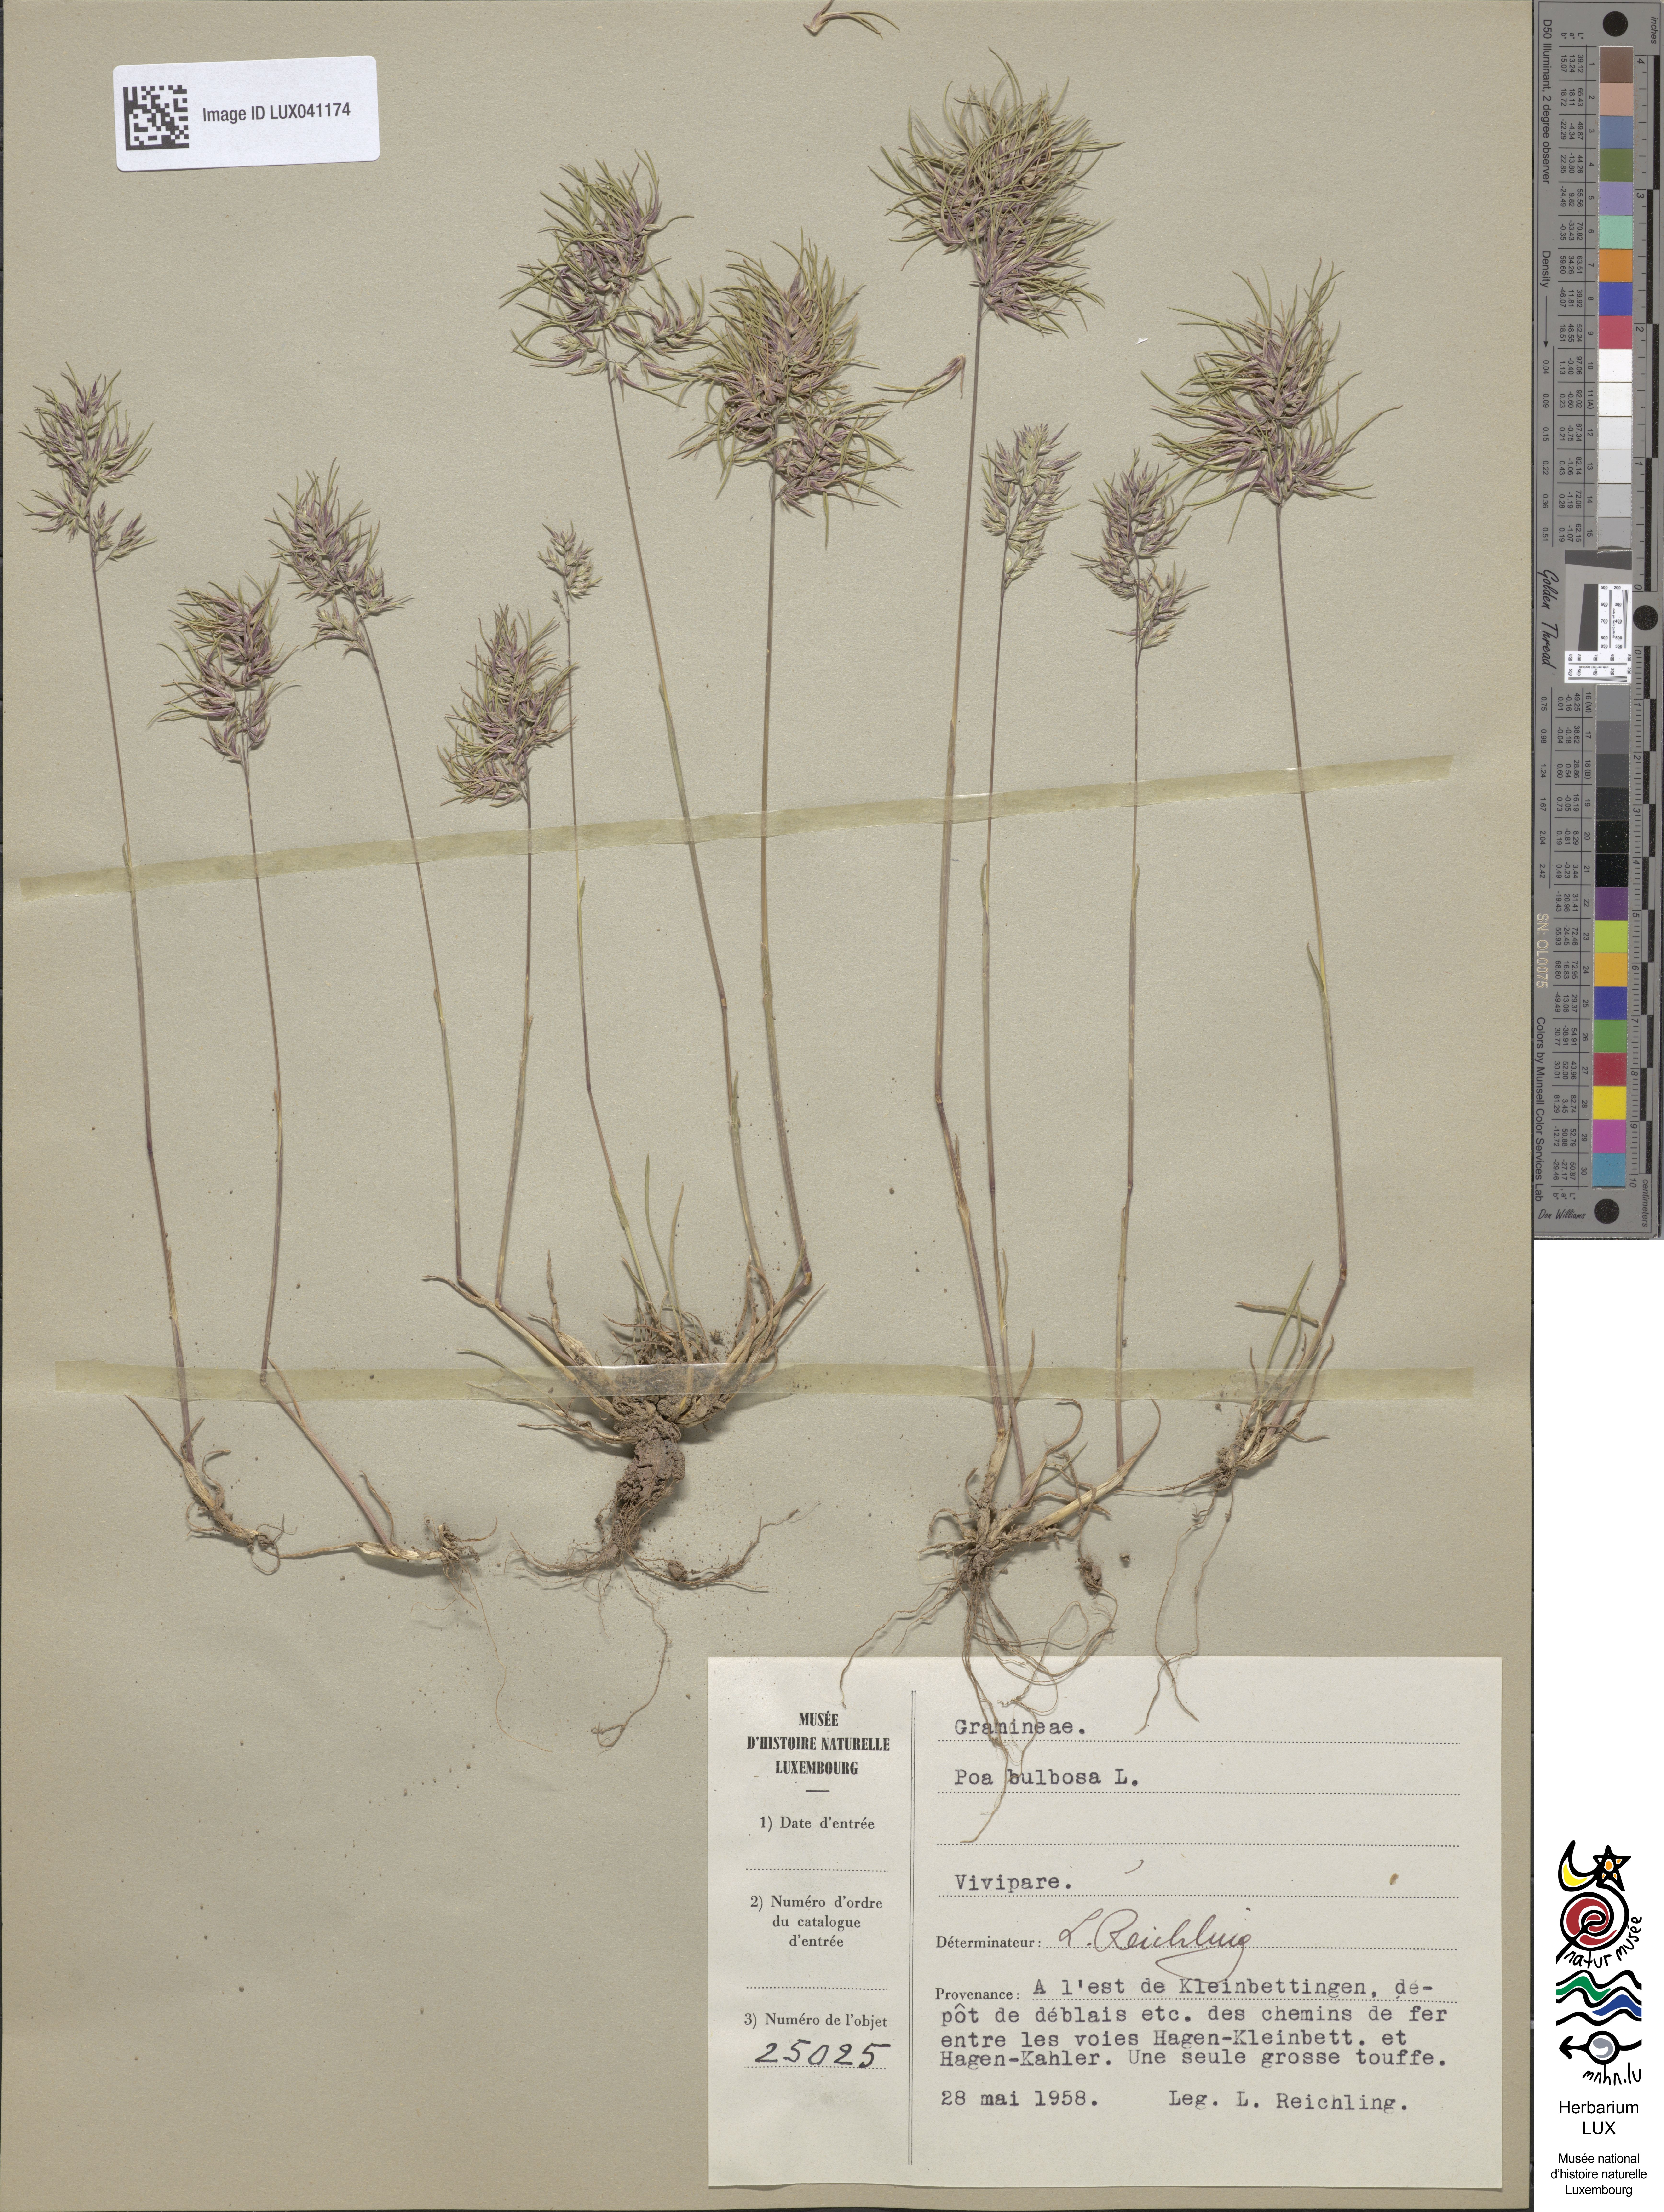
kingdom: Plantae
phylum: Tracheophyta
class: Liliopsida
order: Poales
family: Poaceae
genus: Poa
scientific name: Poa bulbosa
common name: Bulbous bluegrass
